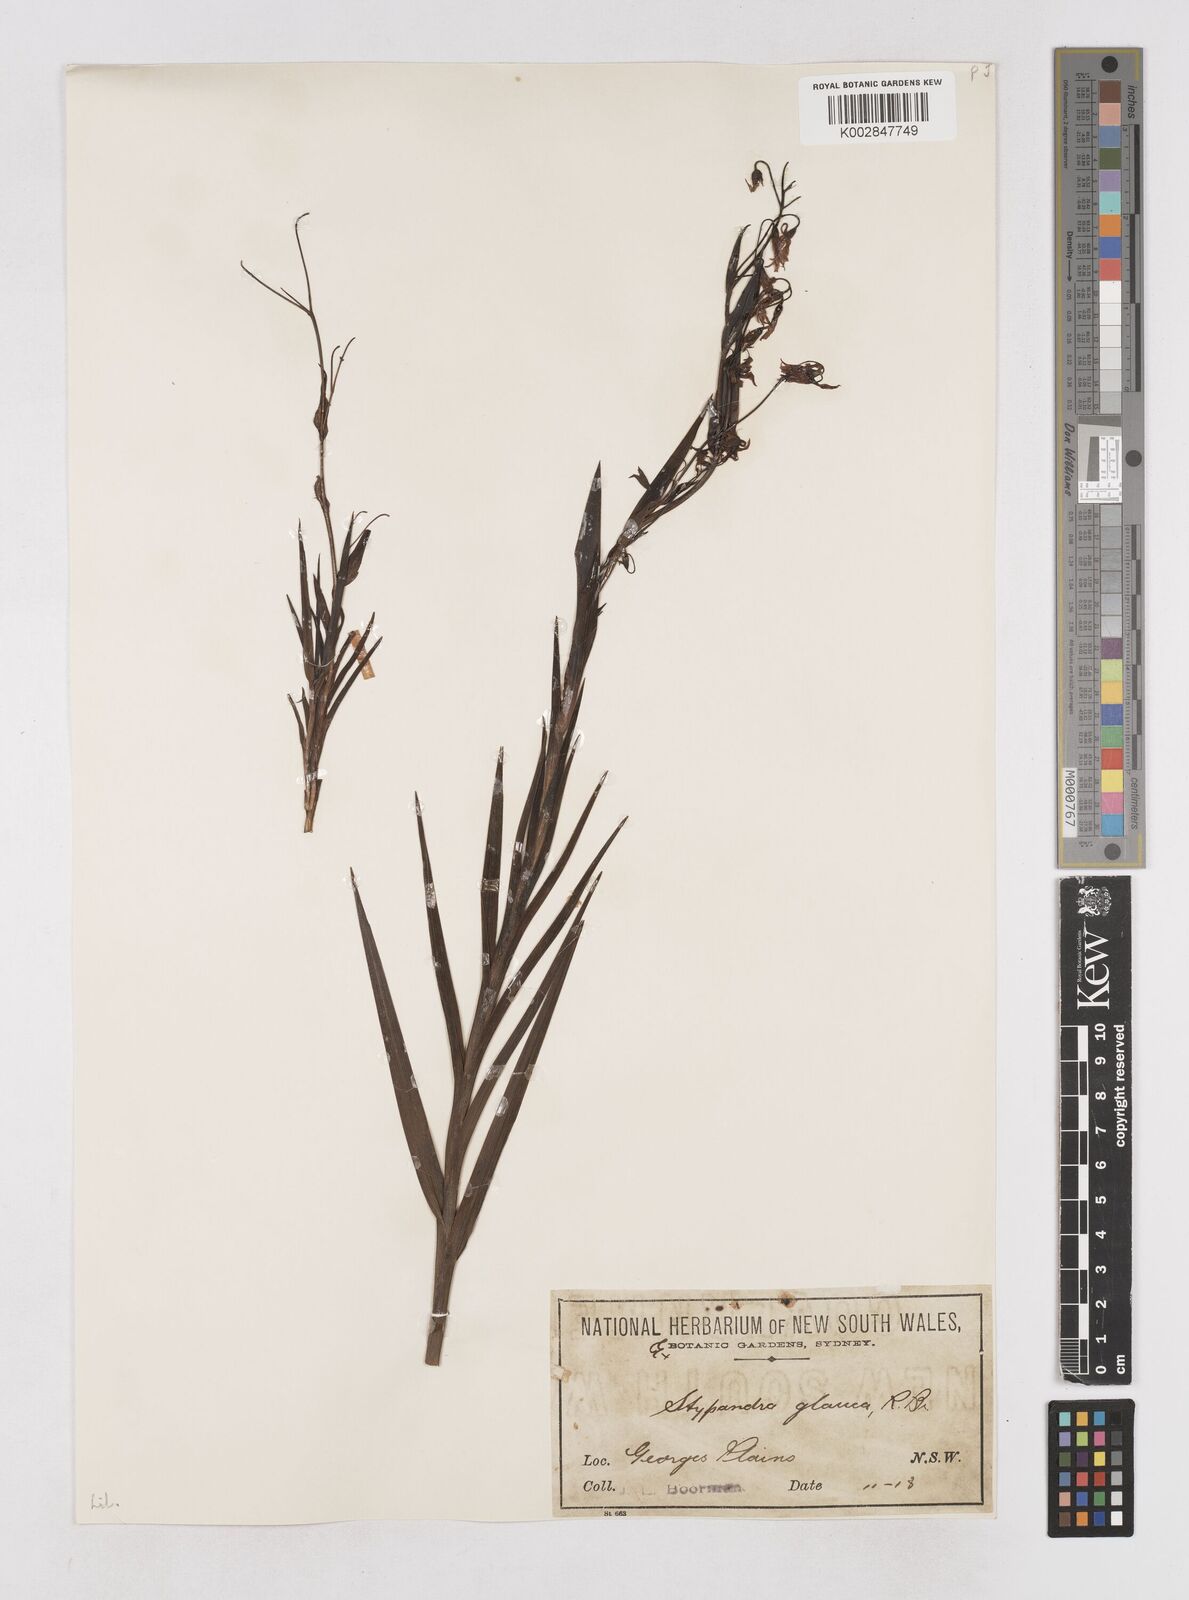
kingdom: Plantae
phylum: Tracheophyta
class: Liliopsida
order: Asparagales
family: Asphodelaceae
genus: Stypandra
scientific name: Stypandra glauca
